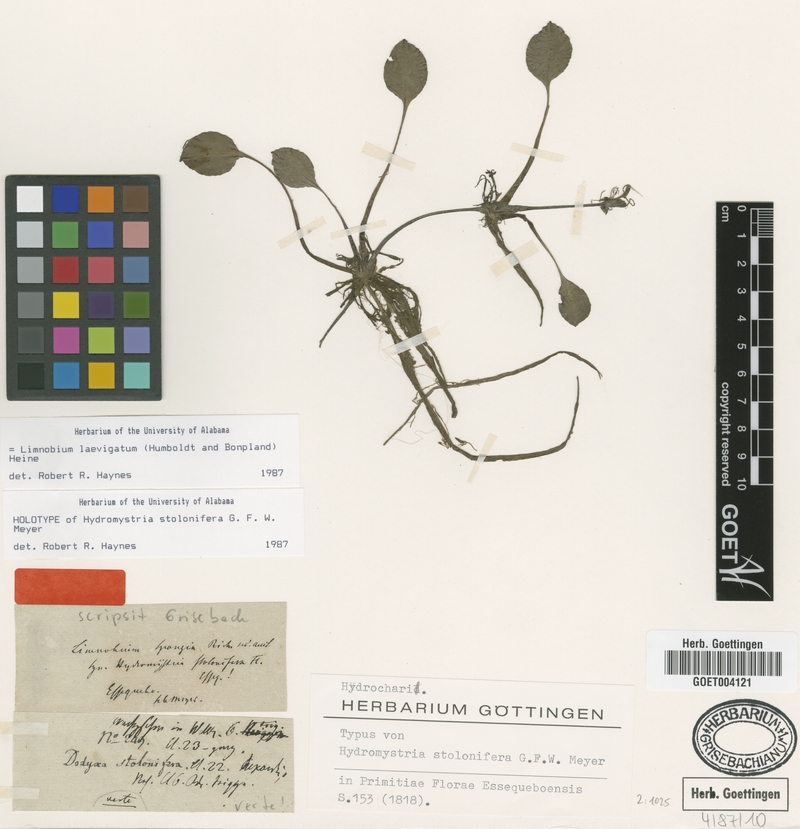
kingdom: Plantae
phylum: Tracheophyta
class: Liliopsida
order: Alismatales
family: Hydrocharitaceae
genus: Hydrocharis
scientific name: Hydrocharis laevigata
